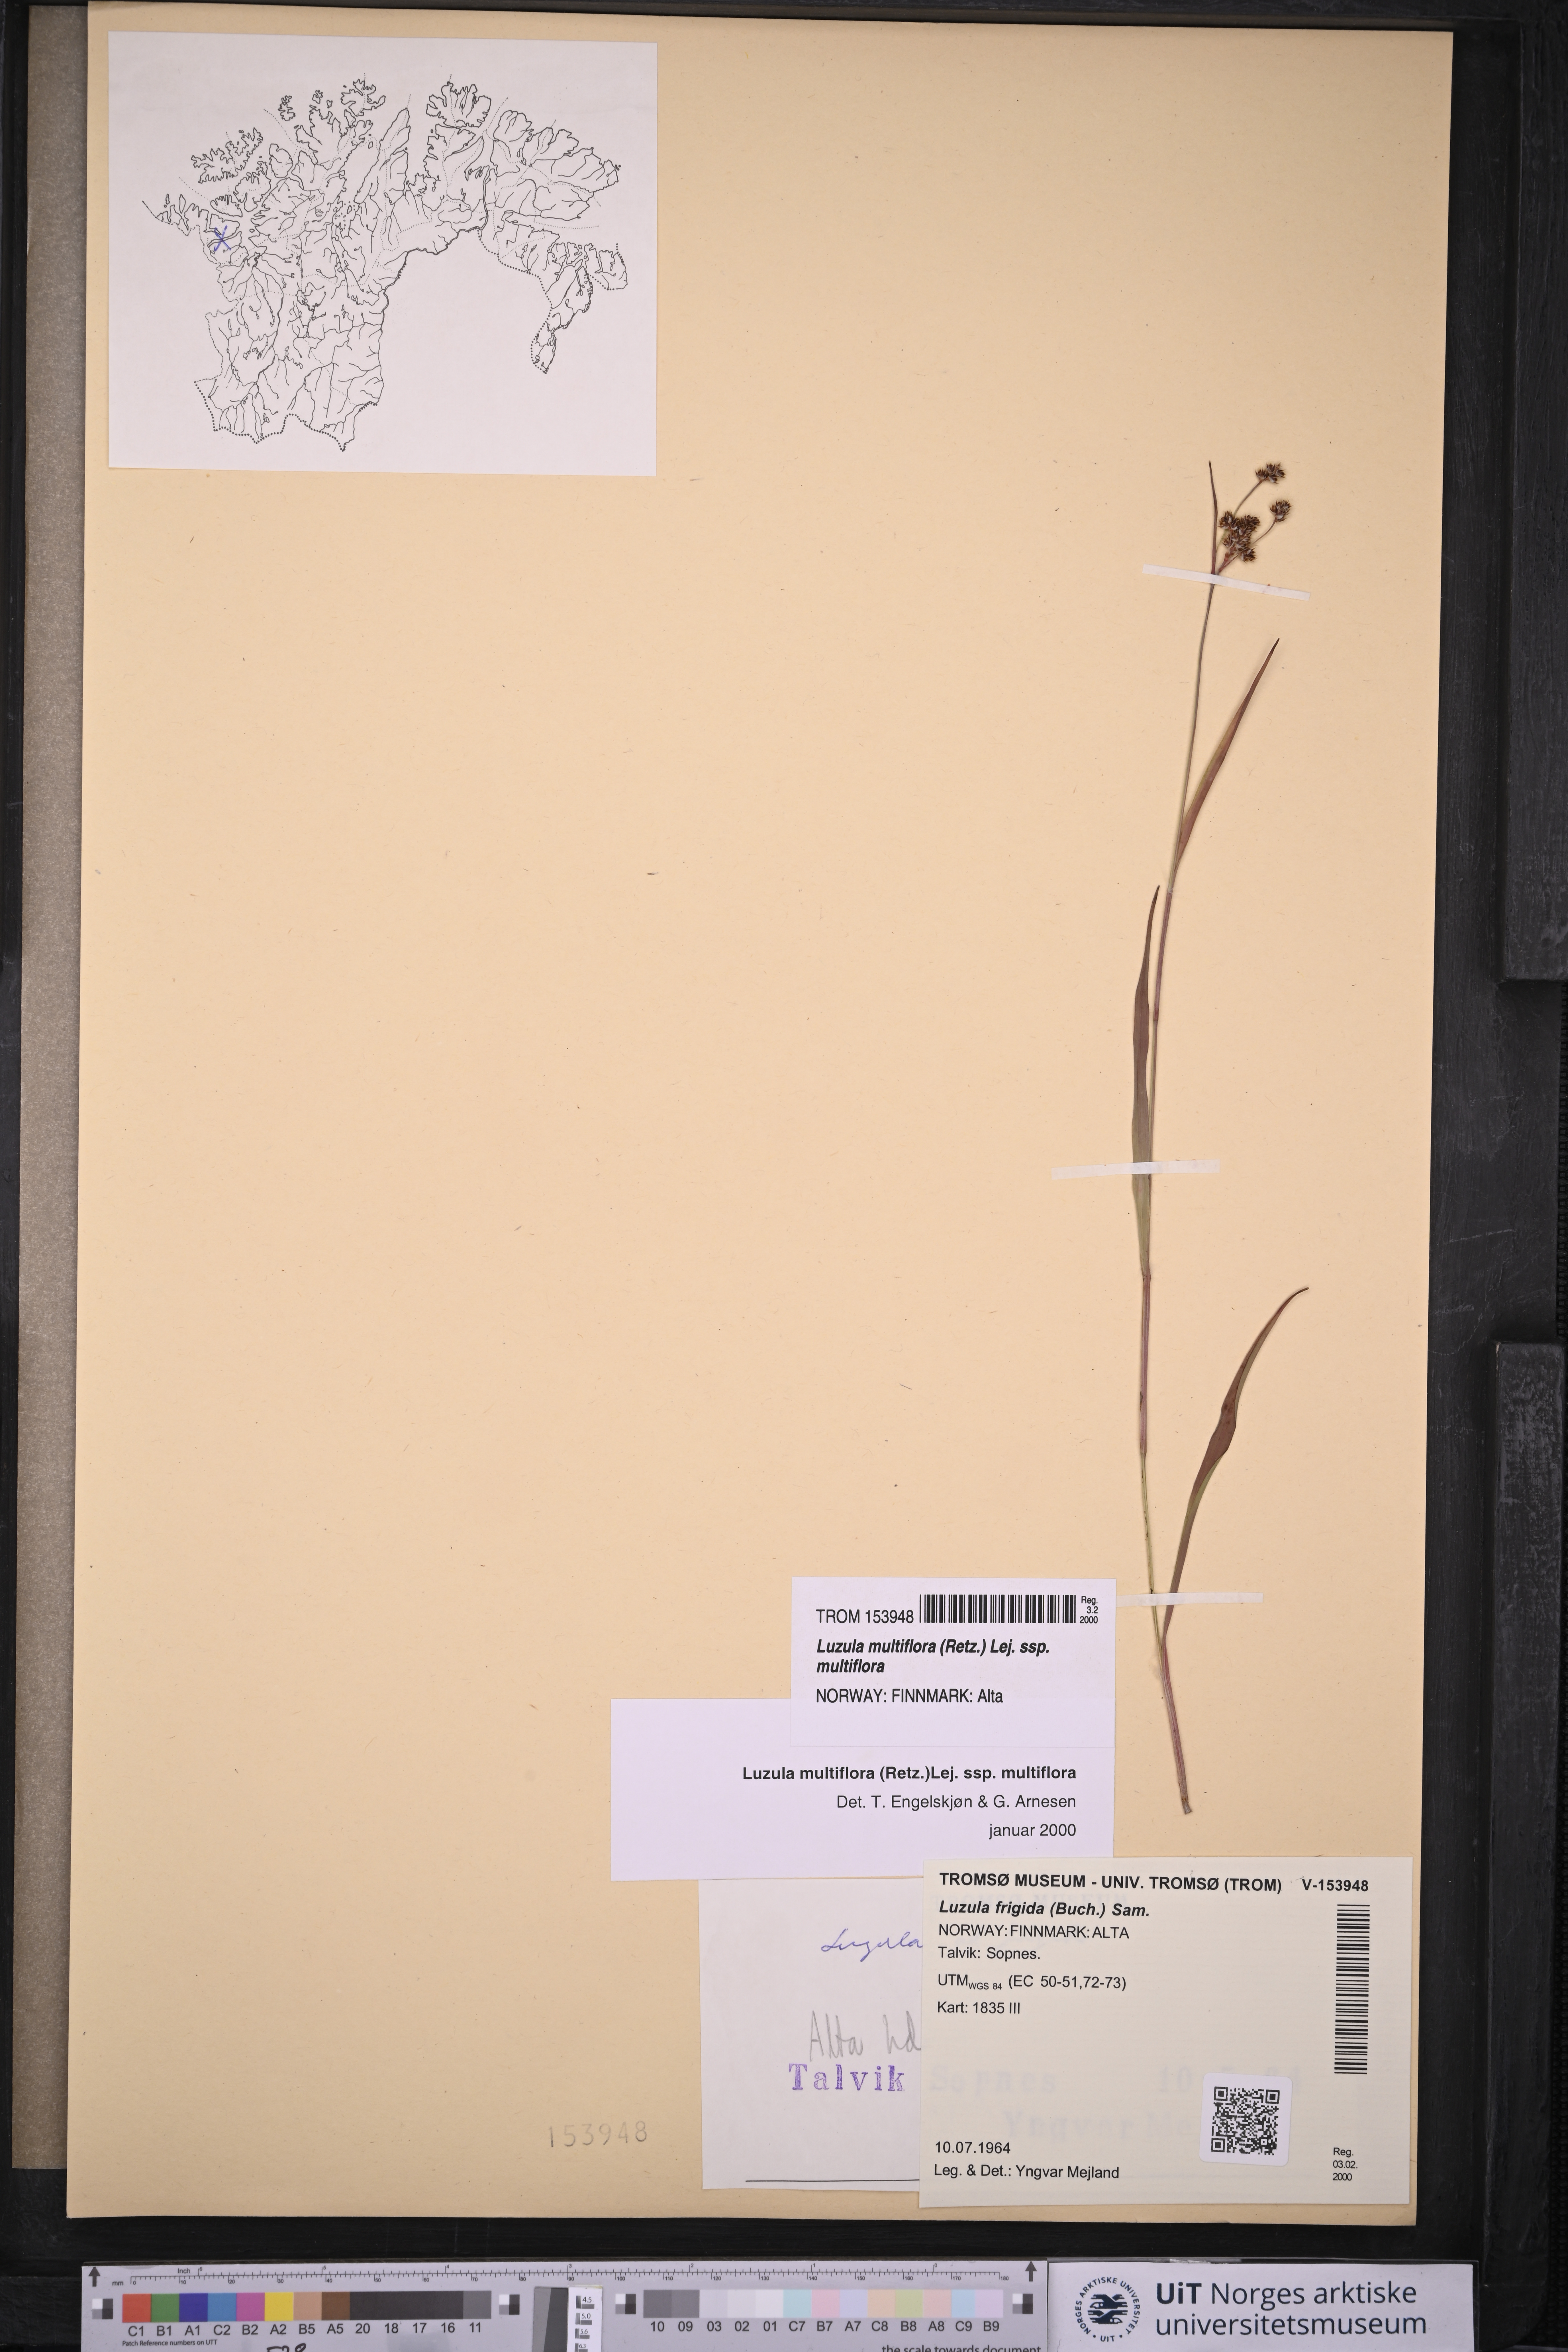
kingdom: Plantae
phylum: Tracheophyta
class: Liliopsida
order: Poales
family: Juncaceae
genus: Luzula
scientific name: Luzula multiflora
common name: Heath wood-rush
